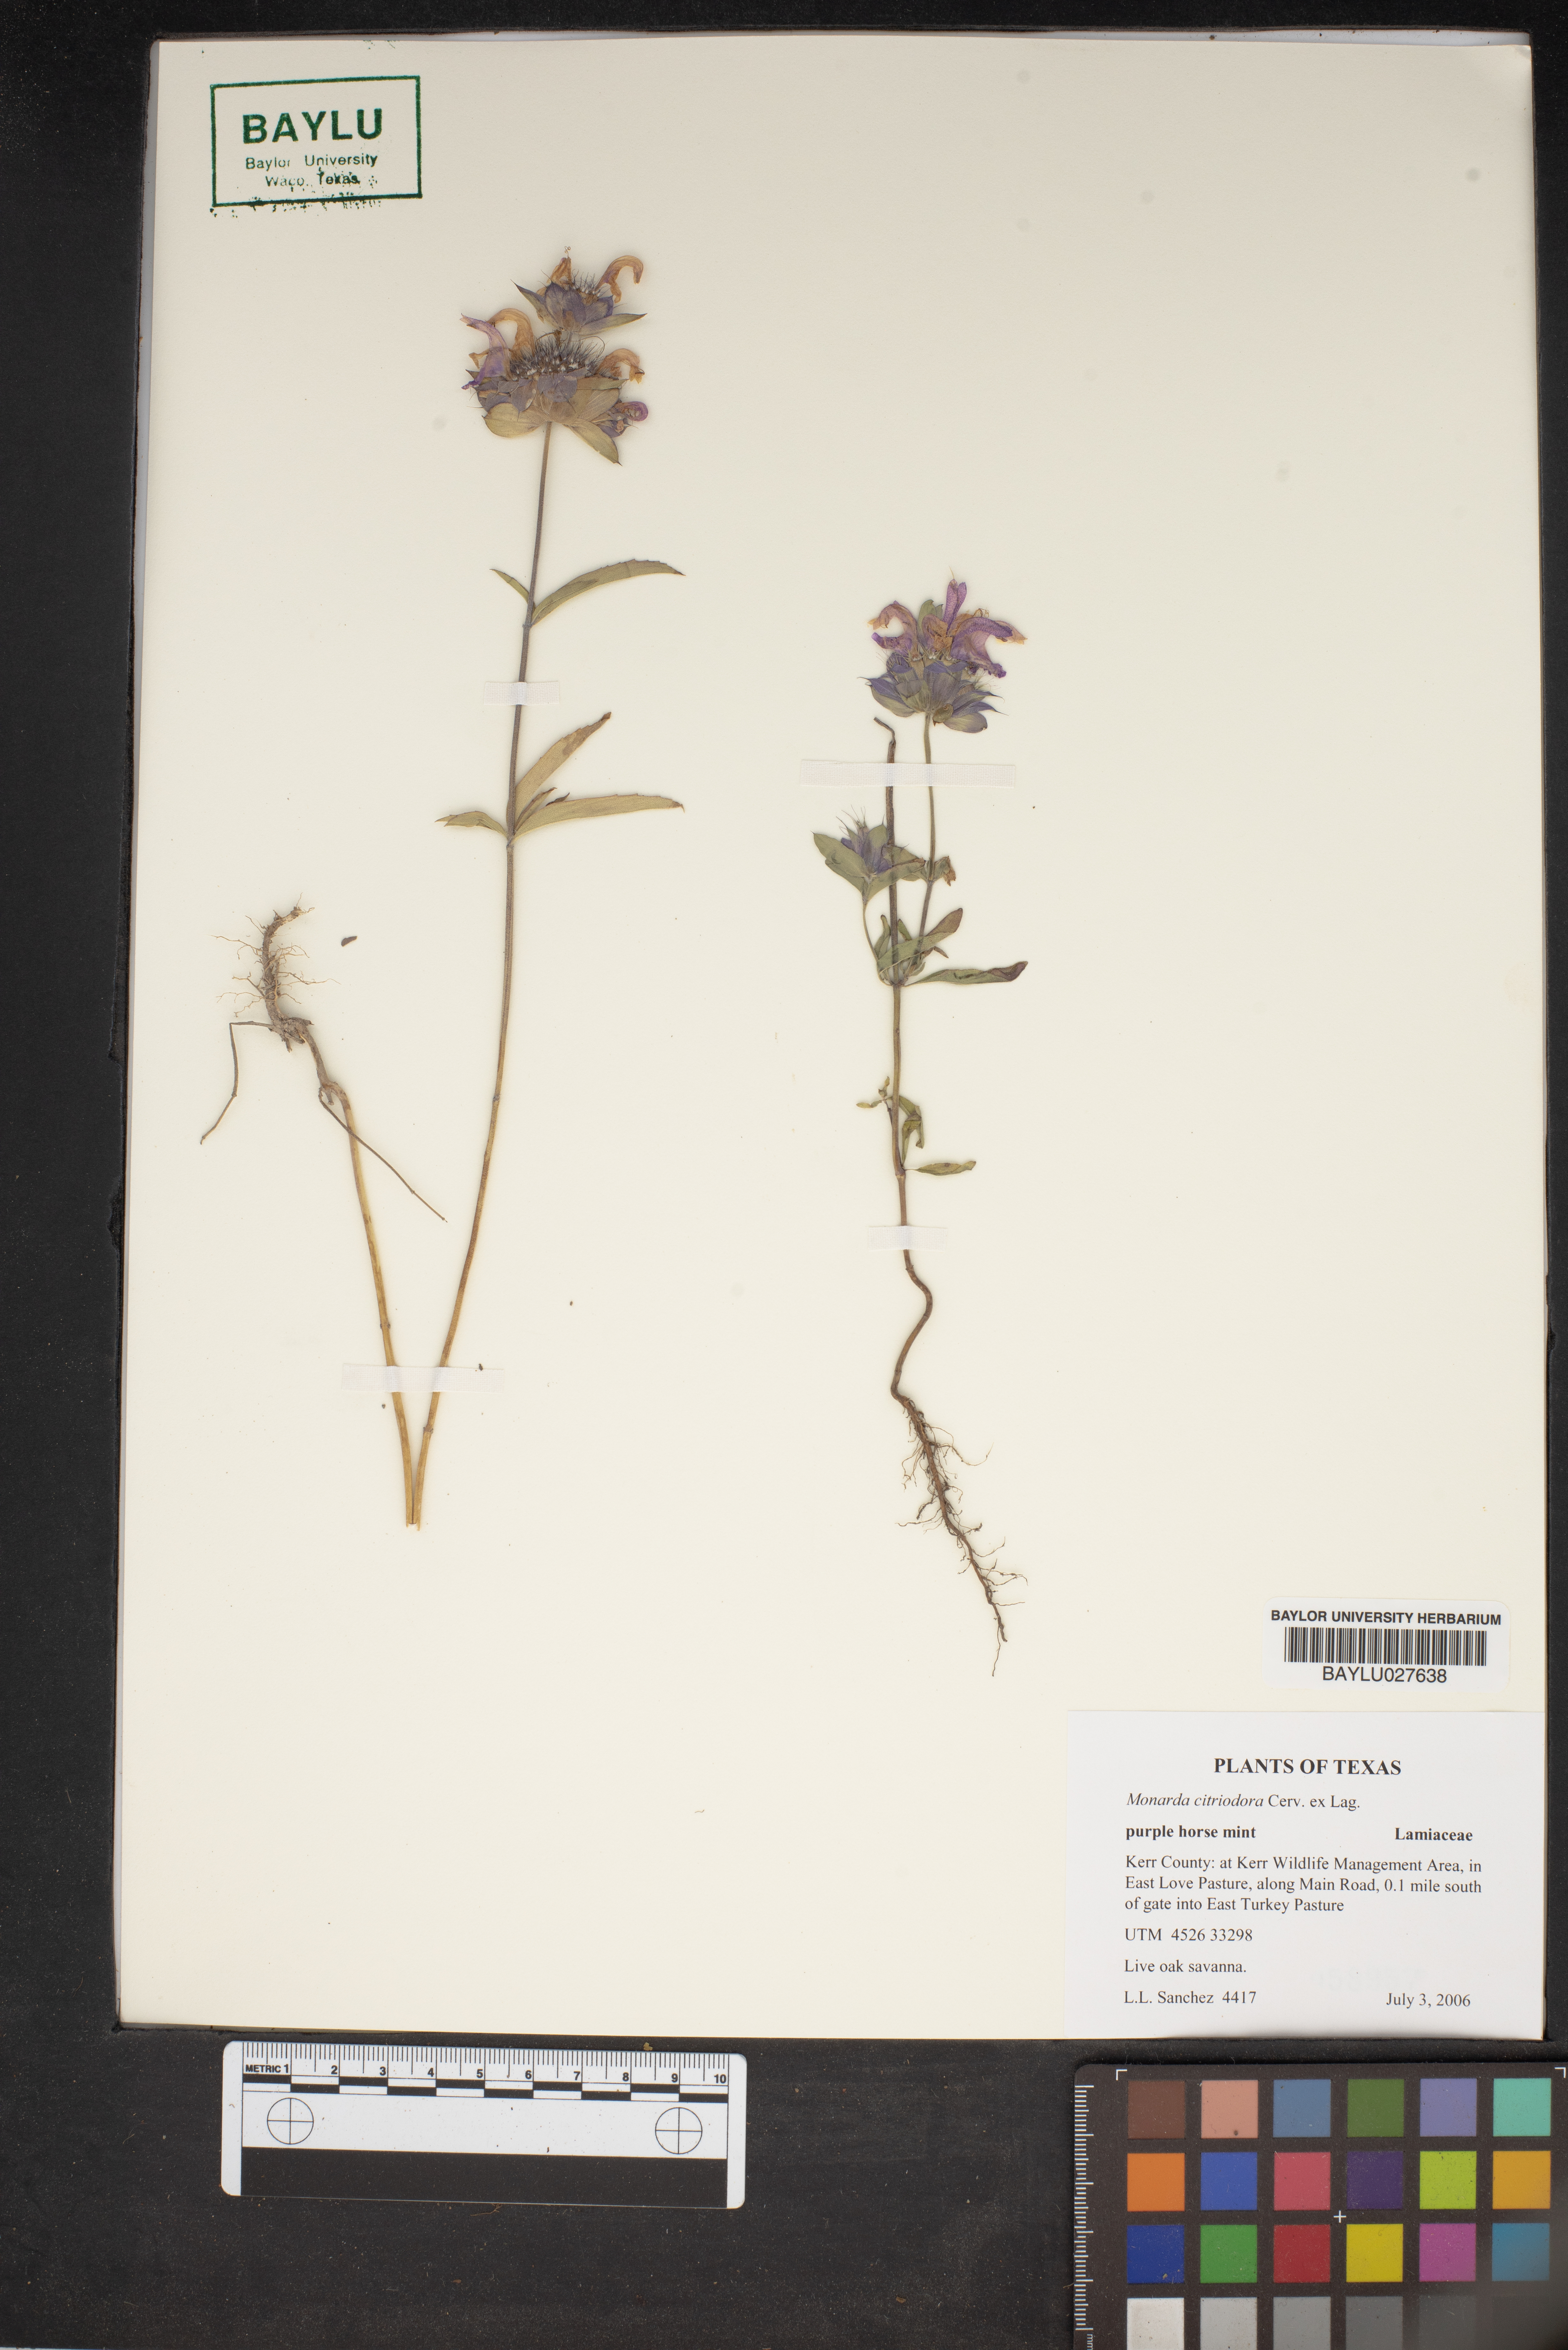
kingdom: Plantae
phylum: Tracheophyta
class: Magnoliopsida
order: Lamiales
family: Lamiaceae
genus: Monarda
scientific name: Monarda citriodora
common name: Lemon beebalm
